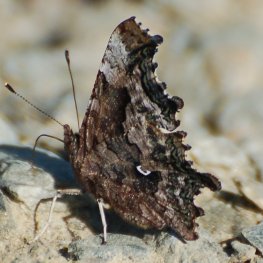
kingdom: Animalia
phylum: Arthropoda
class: Insecta
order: Lepidoptera
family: Nymphalidae
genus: Polygonia
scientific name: Polygonia faunus
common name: Green Comma
